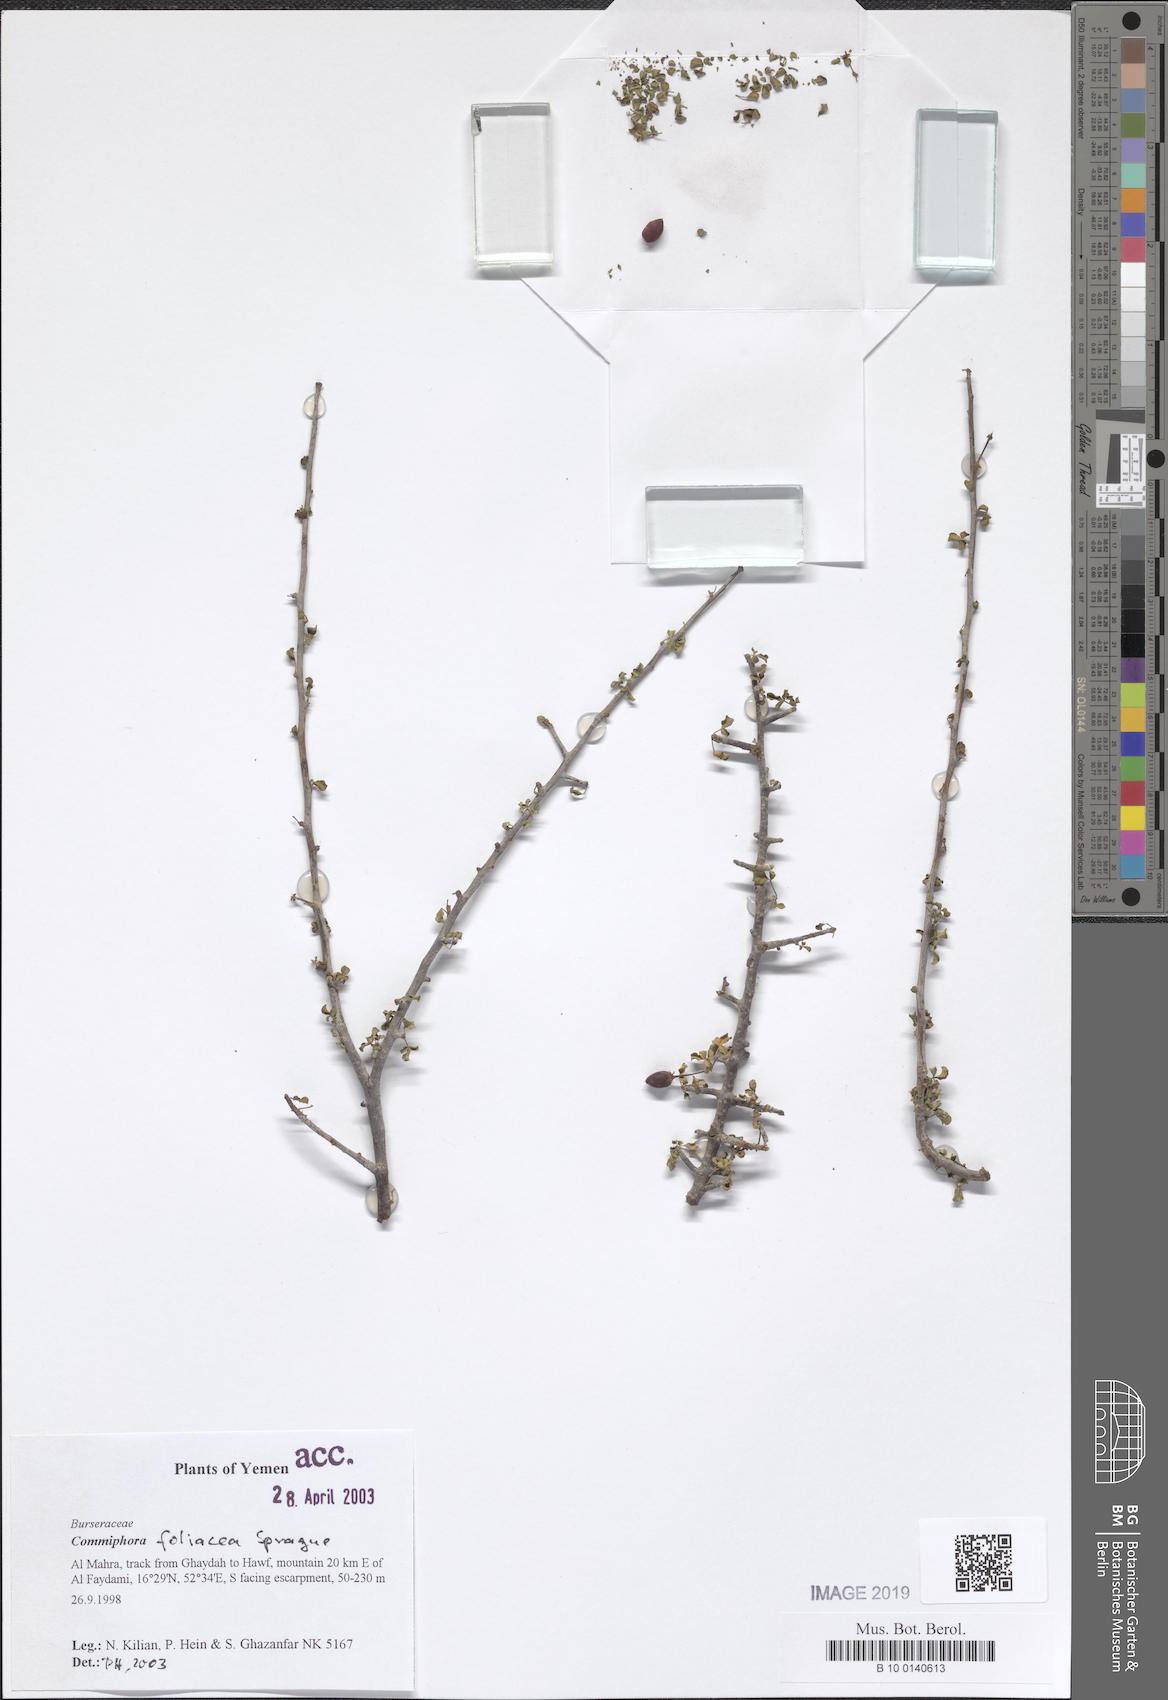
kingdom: Plantae
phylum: Tracheophyta
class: Magnoliopsida
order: Sapindales
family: Burseraceae
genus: Commiphora
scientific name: Commiphora foliacea
